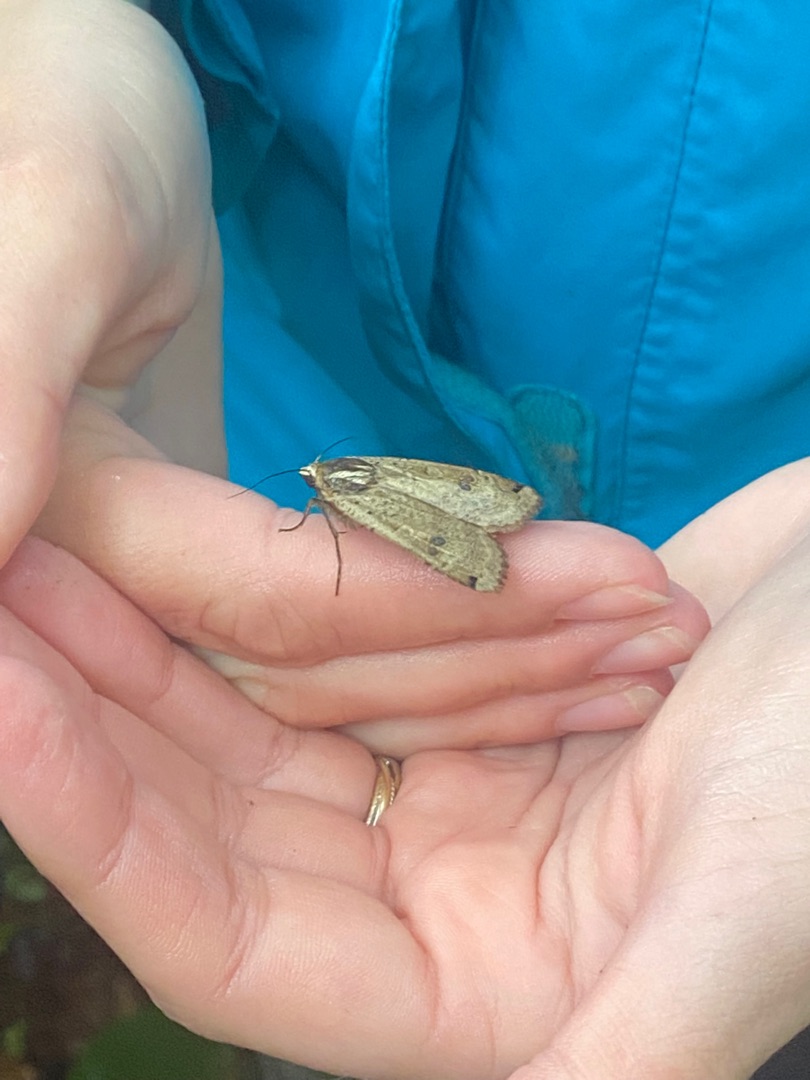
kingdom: Animalia
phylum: Arthropoda
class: Insecta
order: Lepidoptera
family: Noctuidae
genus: Noctua
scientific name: Noctua pronuba
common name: Stor smutugle
